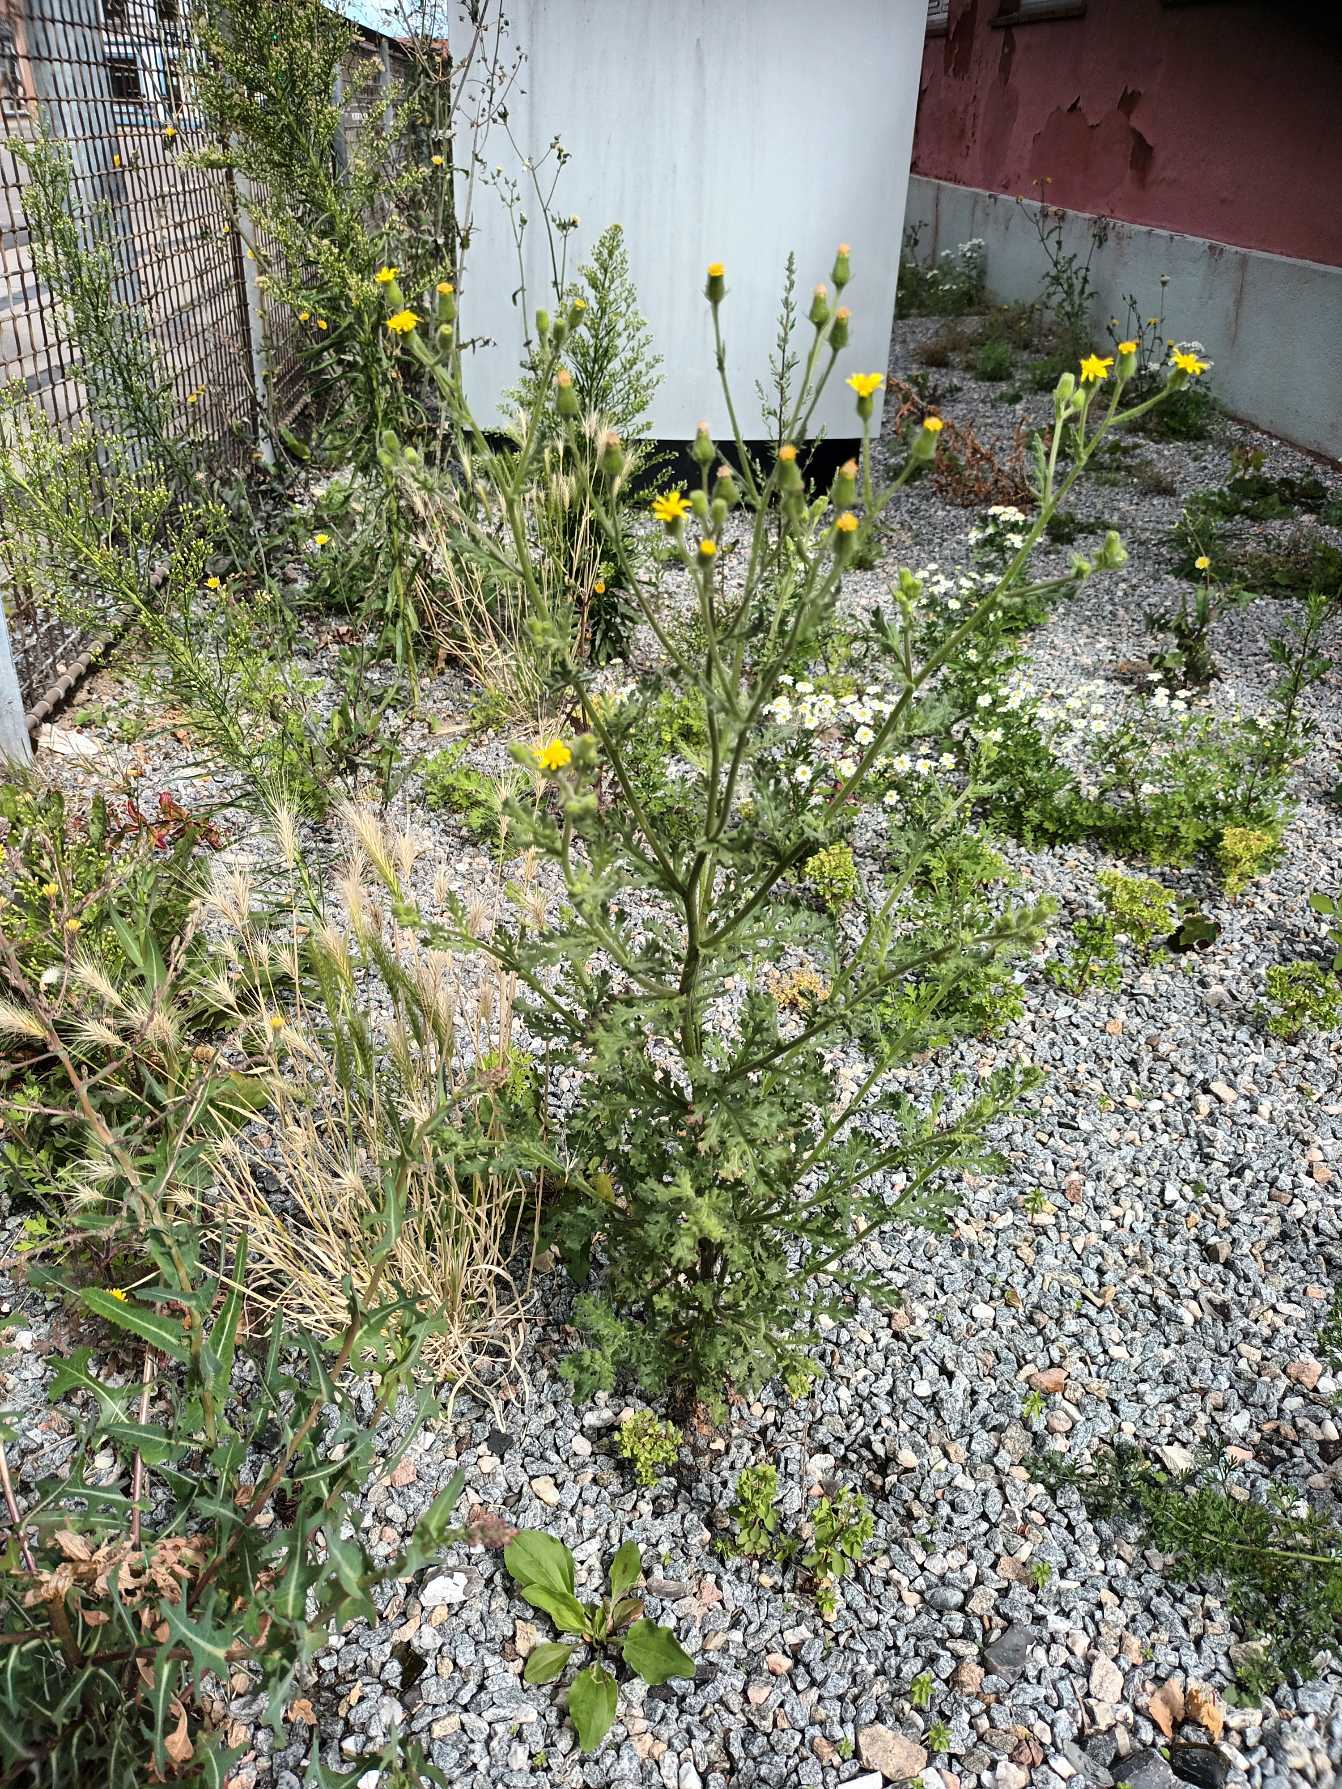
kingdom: Plantae
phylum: Tracheophyta
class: Magnoliopsida
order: Asterales
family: Asteraceae
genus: Senecio
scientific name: Senecio viscosus
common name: Klæbrig brandbæger
